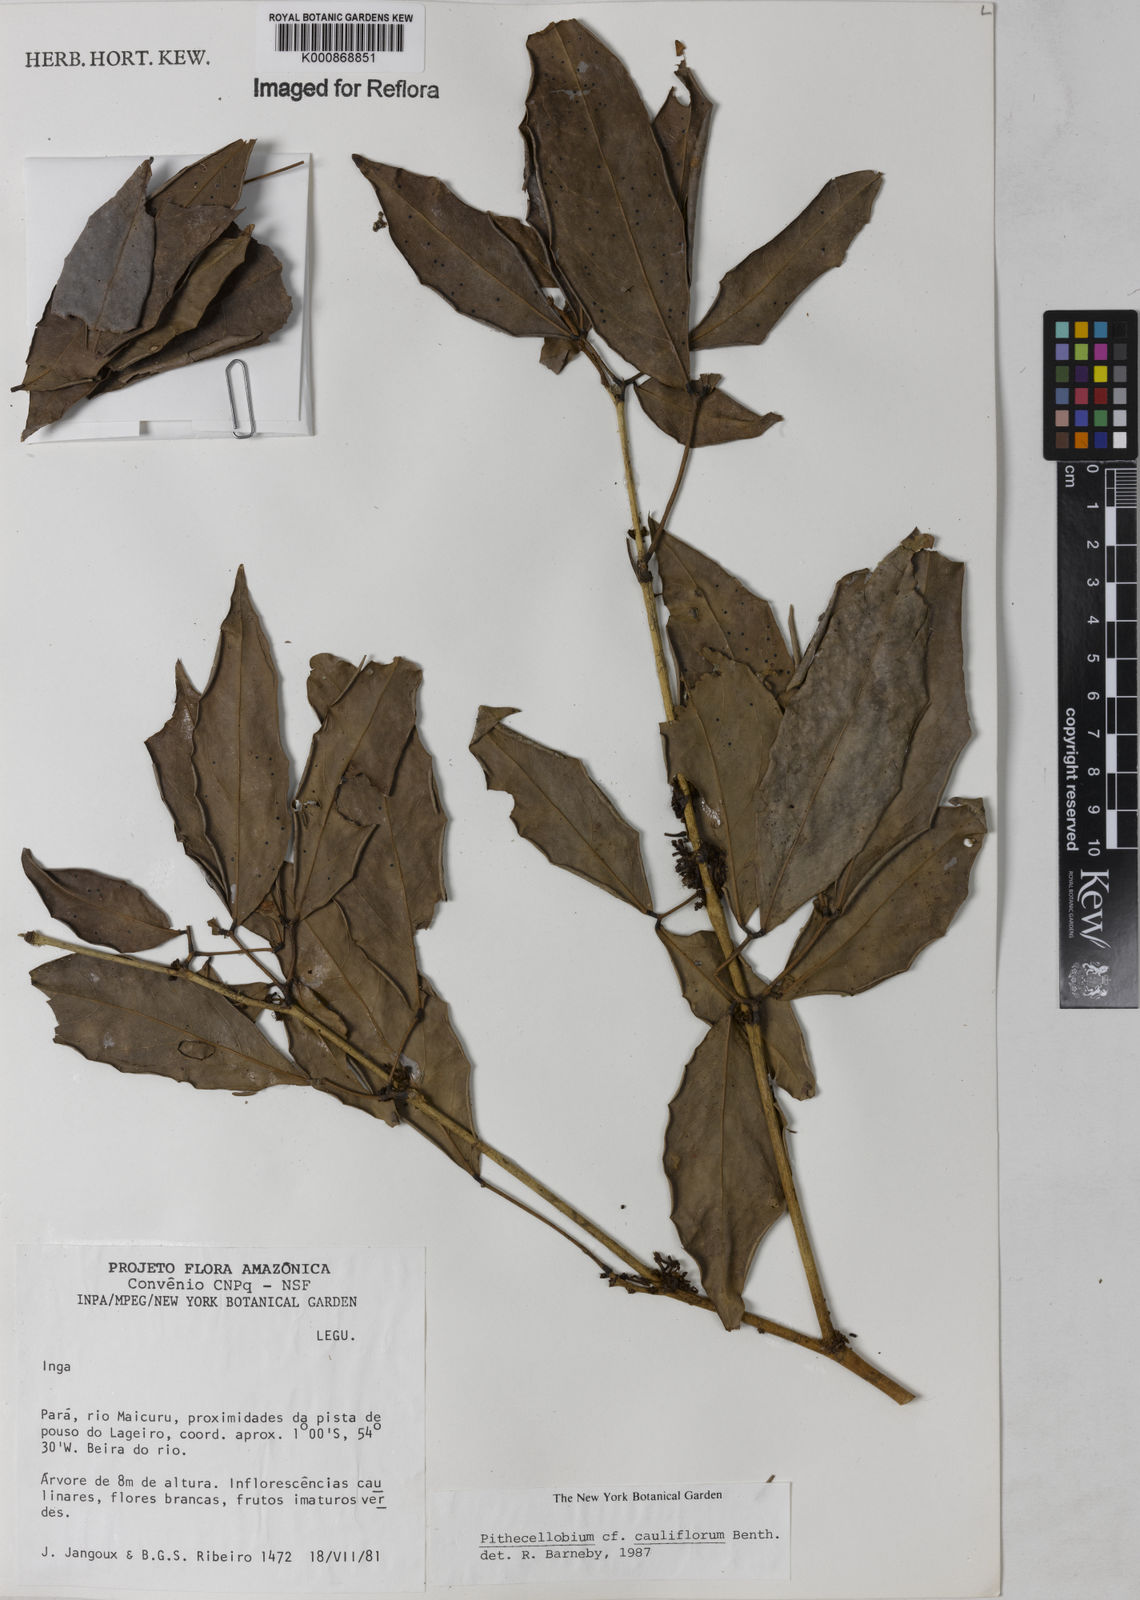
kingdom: Plantae
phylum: Tracheophyta
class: Magnoliopsida
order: Fabales
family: Fabaceae
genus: Zygia
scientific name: Zygia
